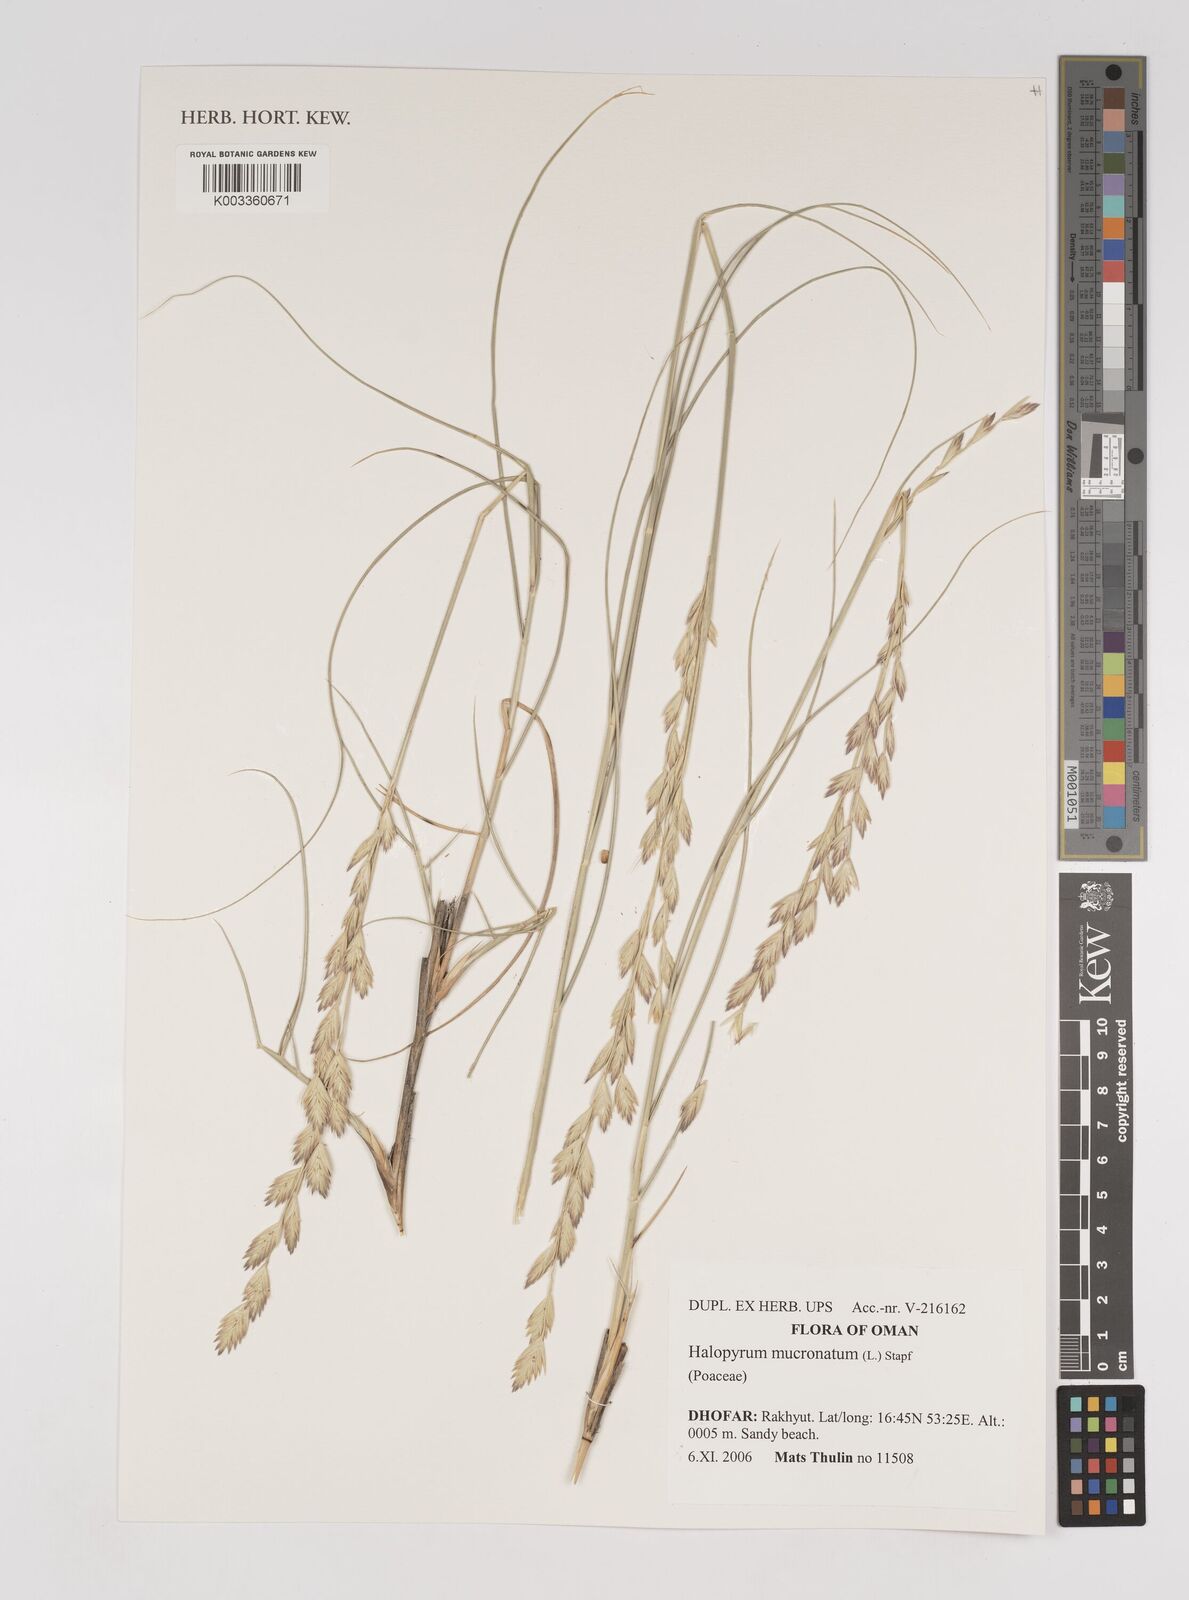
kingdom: Plantae
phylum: Tracheophyta
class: Liliopsida
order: Poales
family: Poaceae
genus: Halopyrum
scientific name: Halopyrum mucronatum
